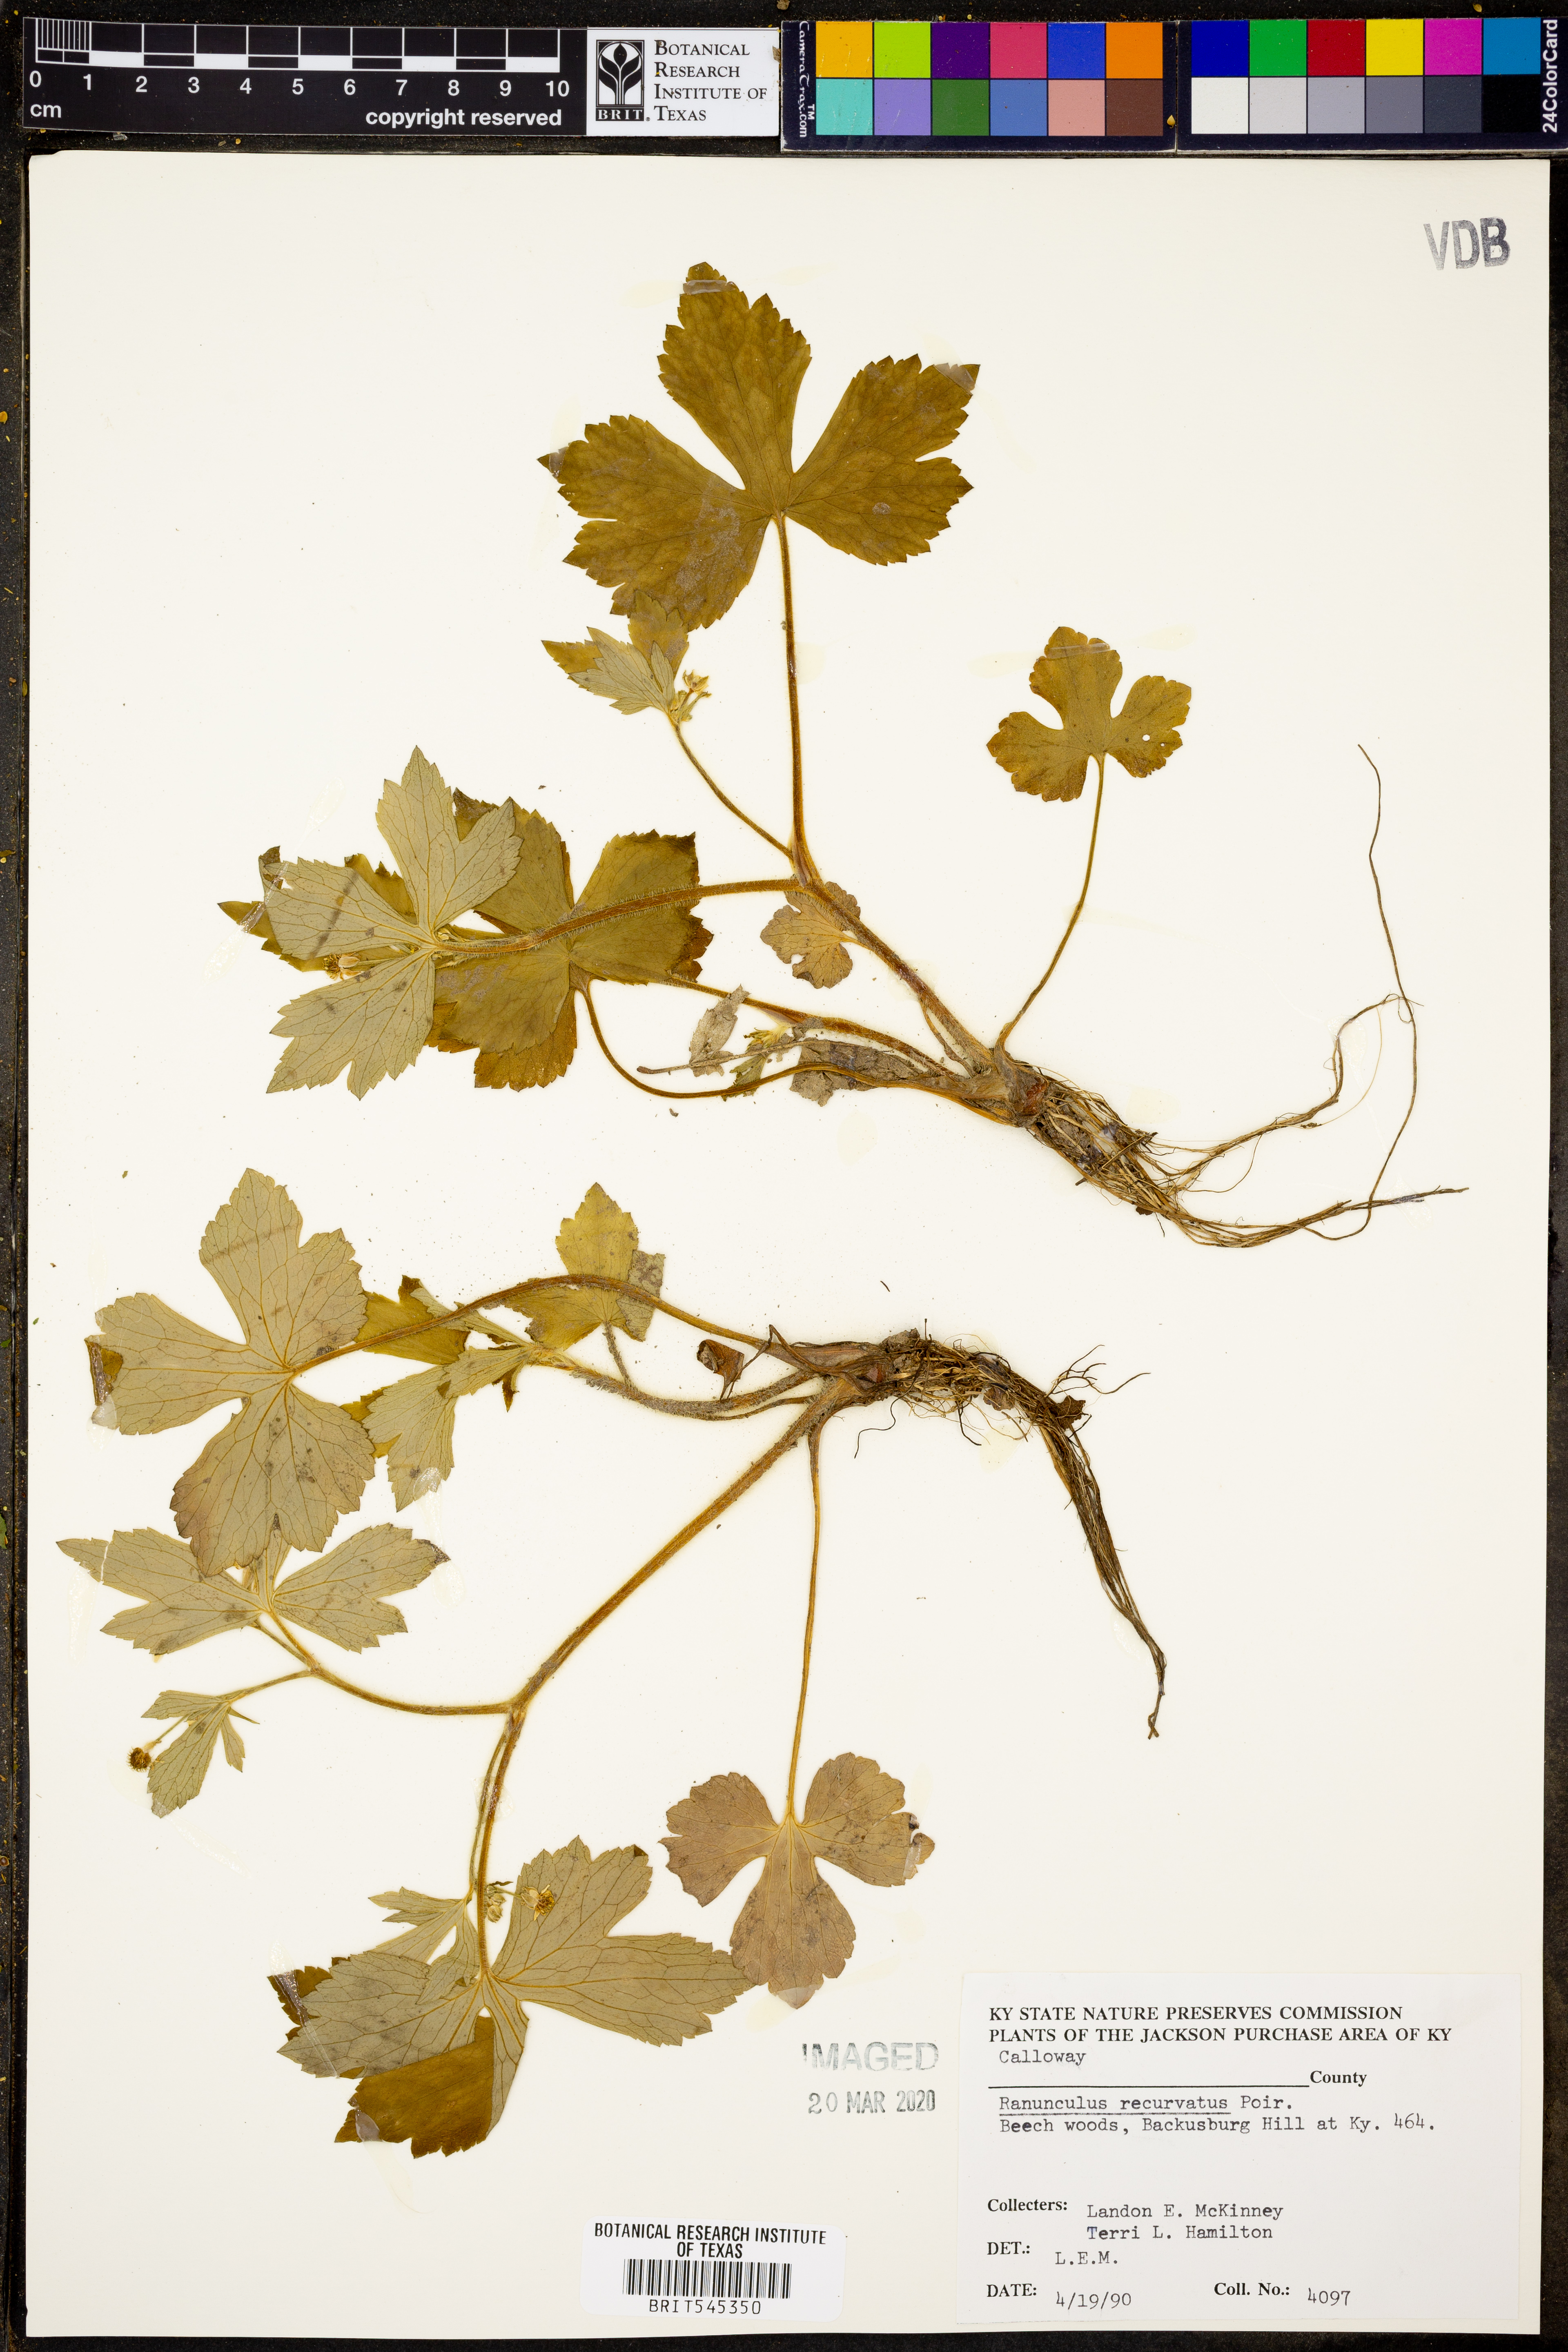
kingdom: Plantae
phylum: Tracheophyta
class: Magnoliopsida
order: Ranunculales
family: Ranunculaceae
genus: Ranunculus
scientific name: Ranunculus recurvatus
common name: Blisterwort
